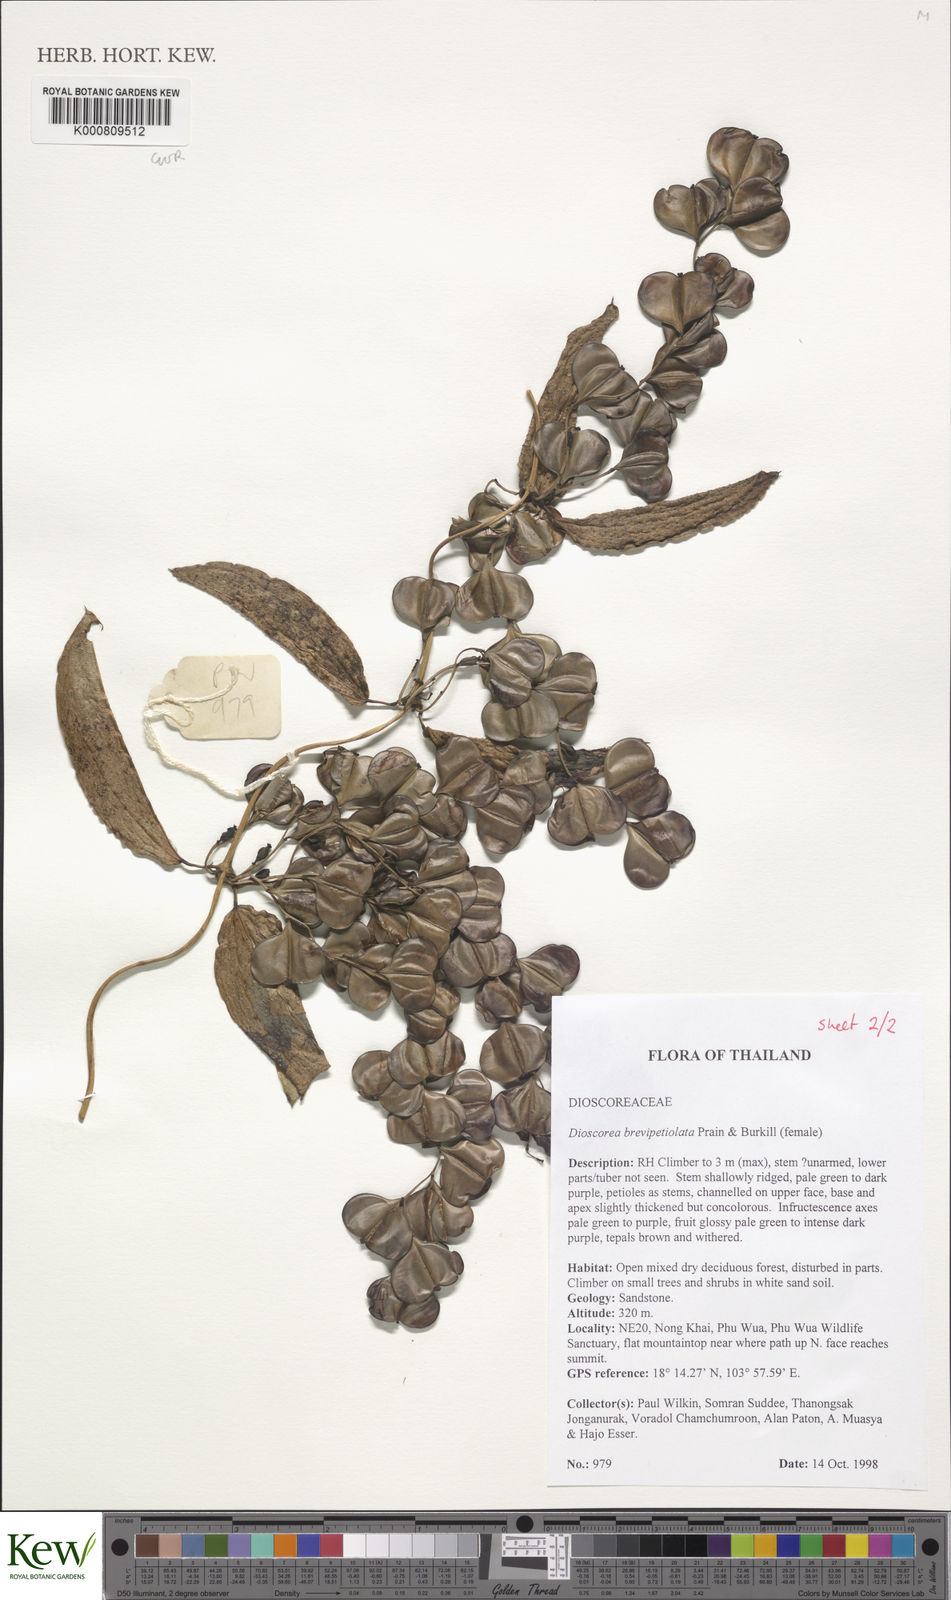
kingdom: Plantae
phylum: Tracheophyta
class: Liliopsida
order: Dioscoreales
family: Dioscoreaceae
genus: Dioscorea
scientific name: Dioscorea brevipetiolata
